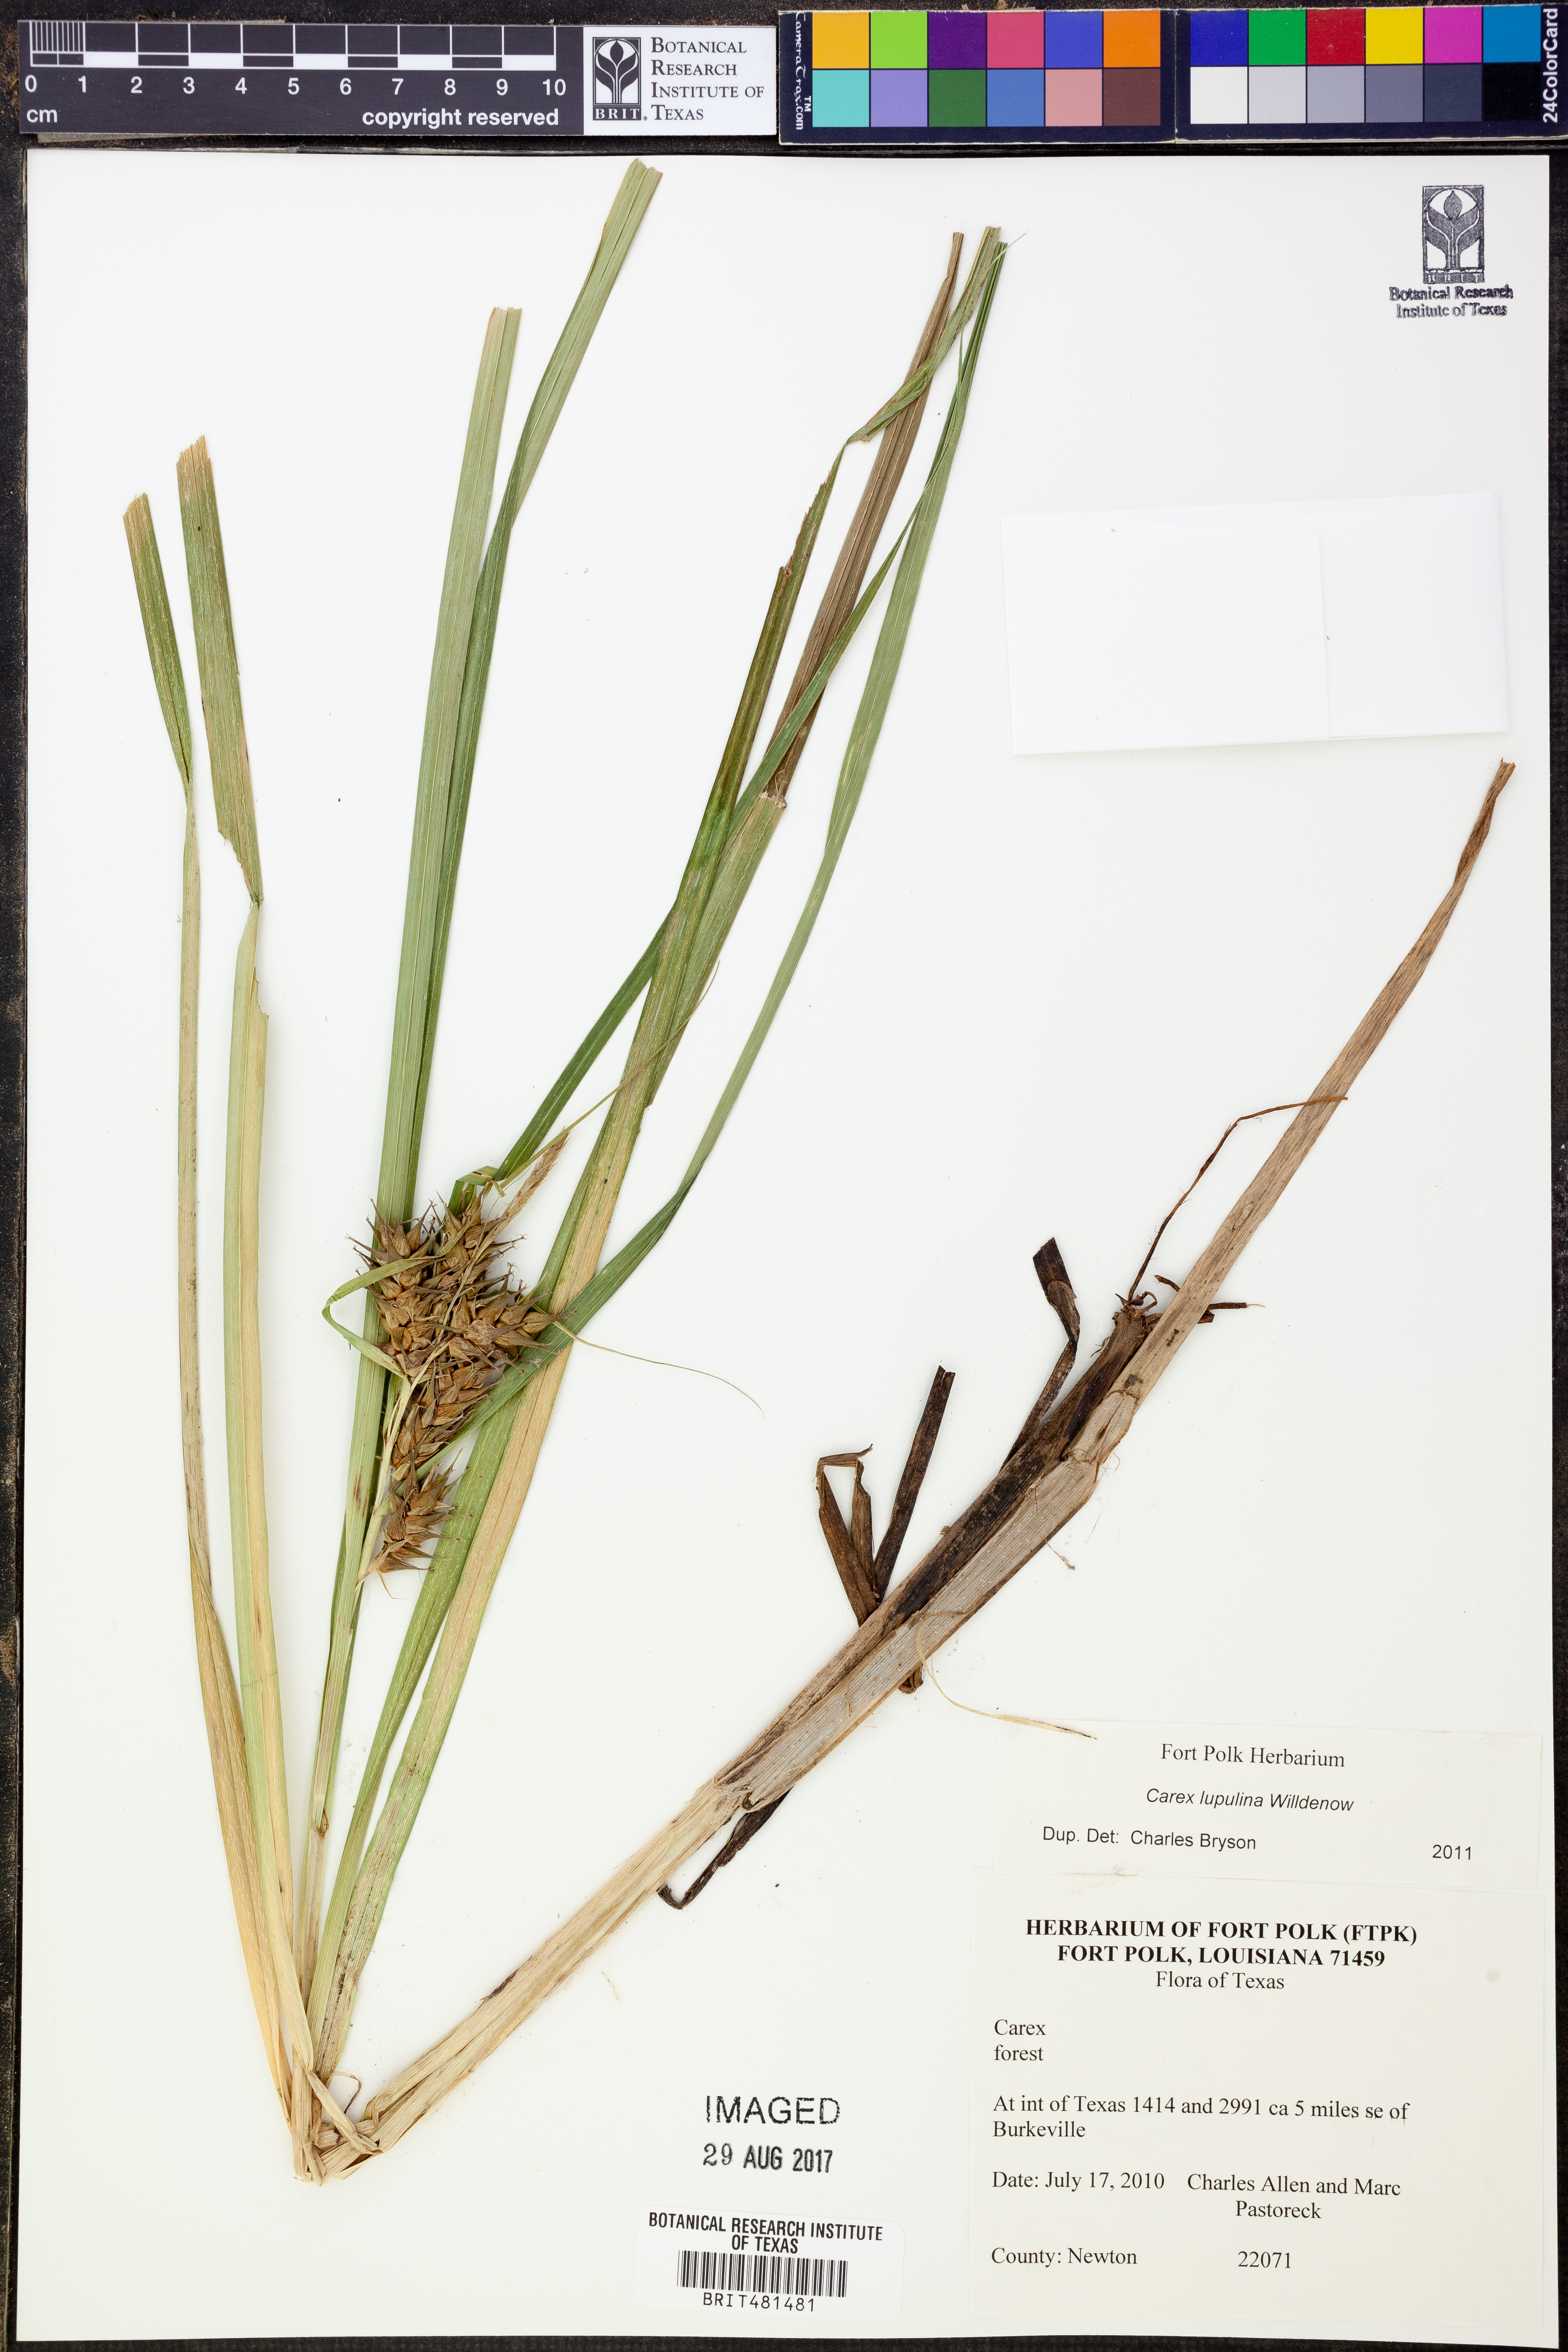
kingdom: Plantae
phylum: Tracheophyta
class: Liliopsida
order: Poales
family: Cyperaceae
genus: Carex
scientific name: Carex lupulina
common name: Hop sedge
